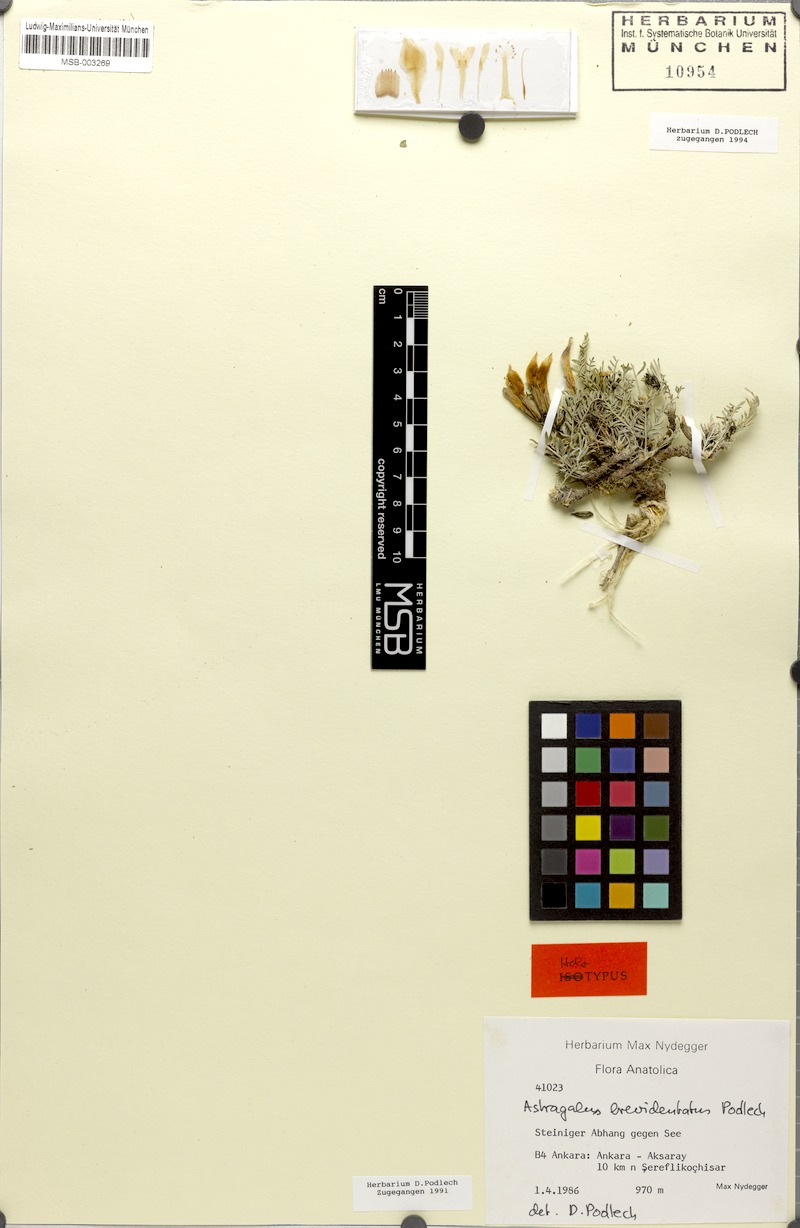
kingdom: Plantae
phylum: Tracheophyta
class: Magnoliopsida
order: Fabales
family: Fabaceae
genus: Astragalus
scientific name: Astragalus geocyamus
